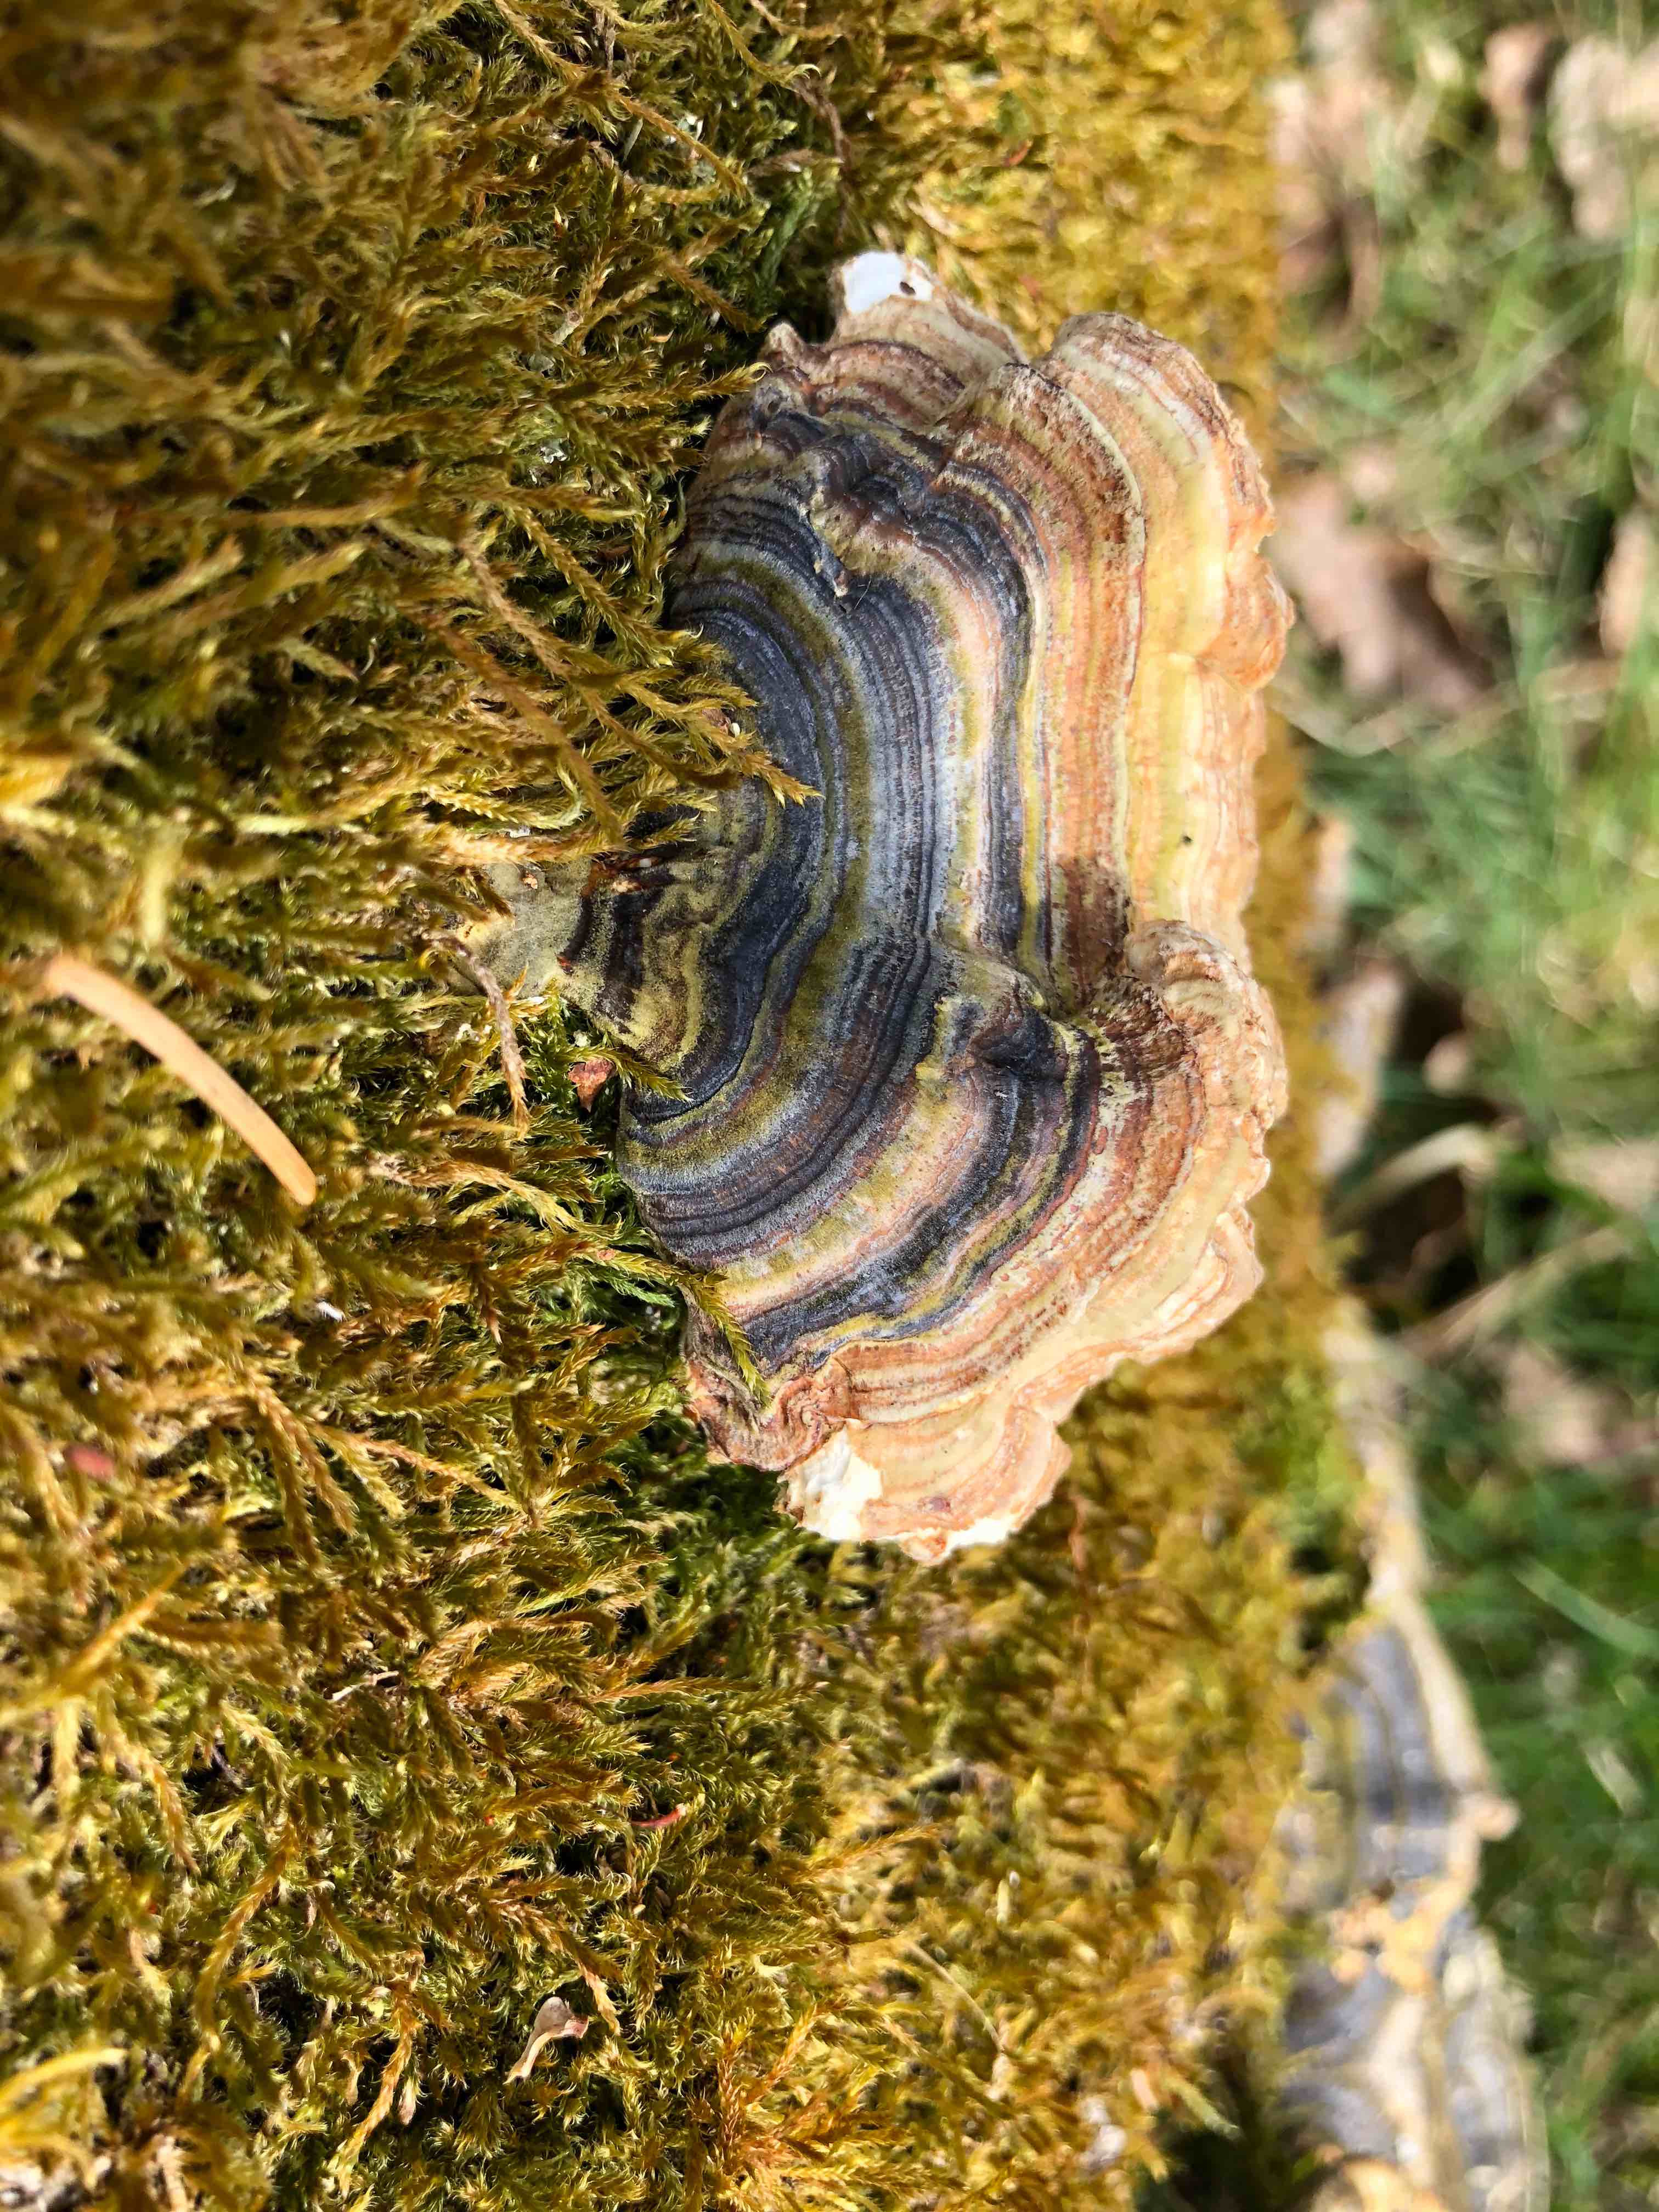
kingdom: Fungi
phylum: Basidiomycota
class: Agaricomycetes
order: Polyporales
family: Polyporaceae
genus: Trametes
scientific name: Trametes versicolor
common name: broget læderporesvamp
